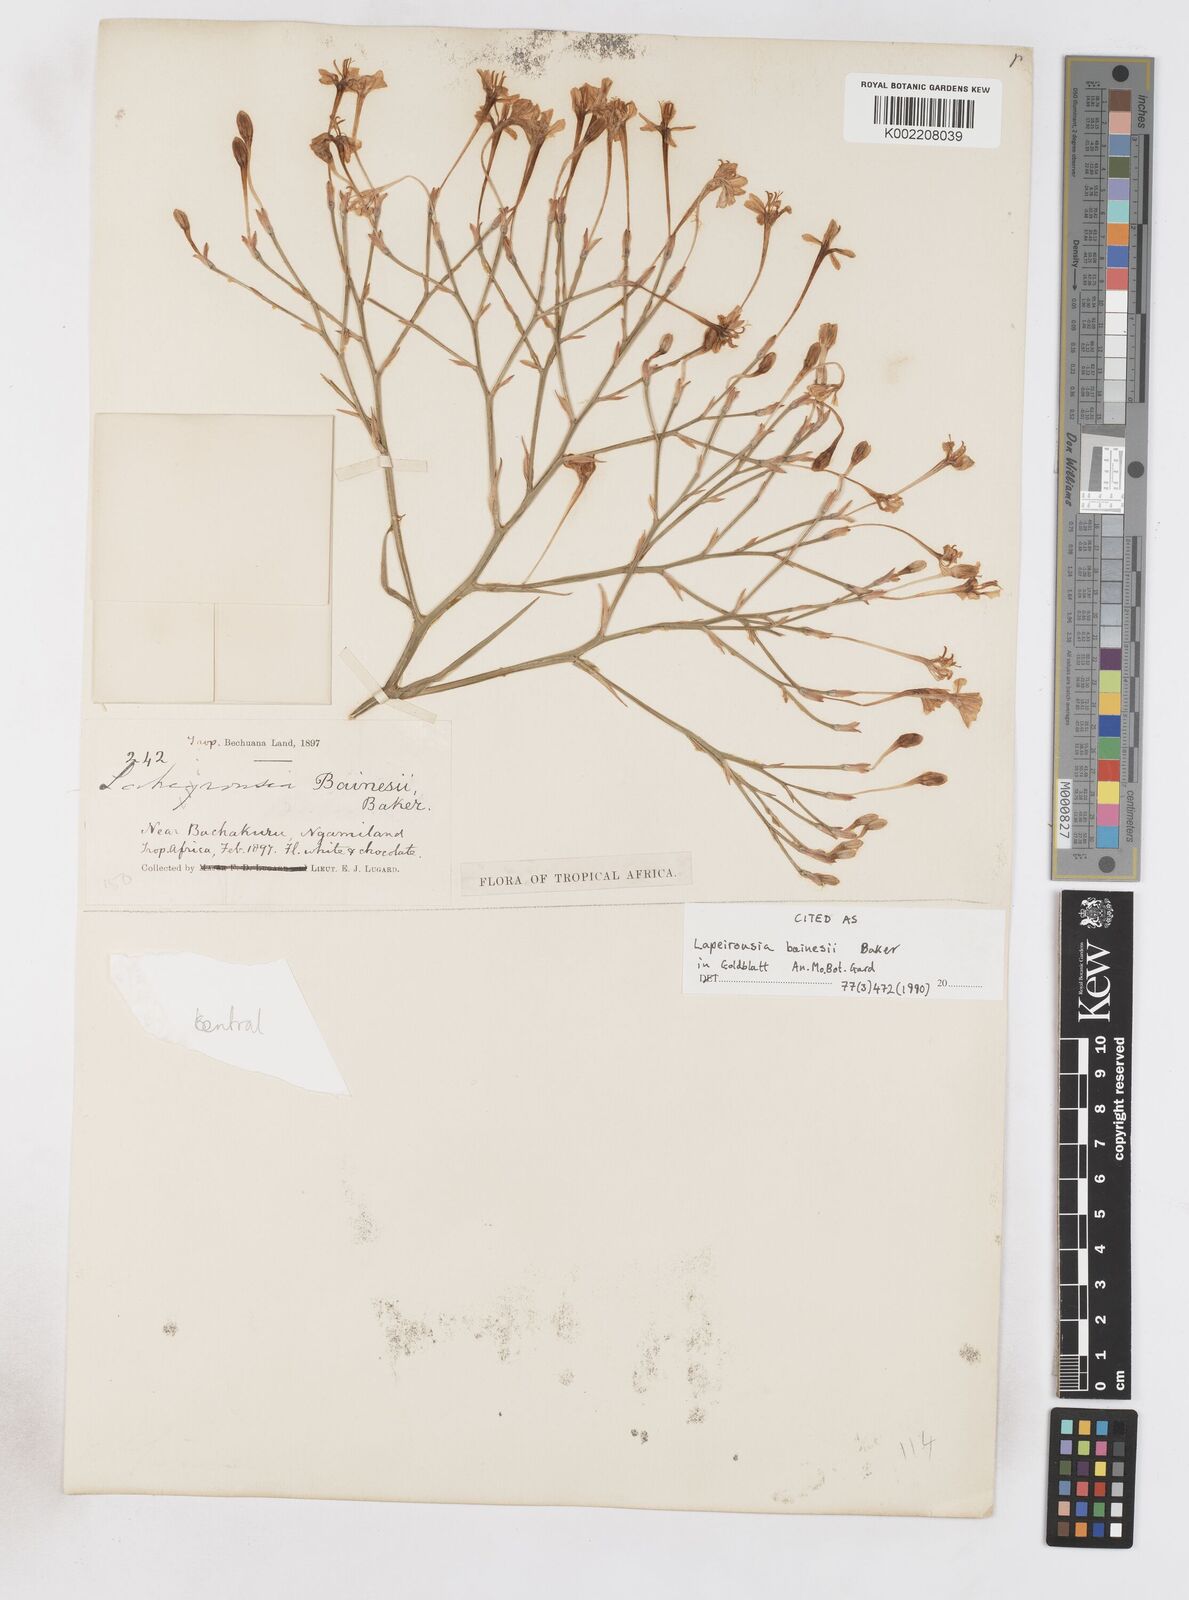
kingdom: Plantae
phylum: Tracheophyta
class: Liliopsida
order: Asparagales
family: Iridaceae
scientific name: Iridaceae
